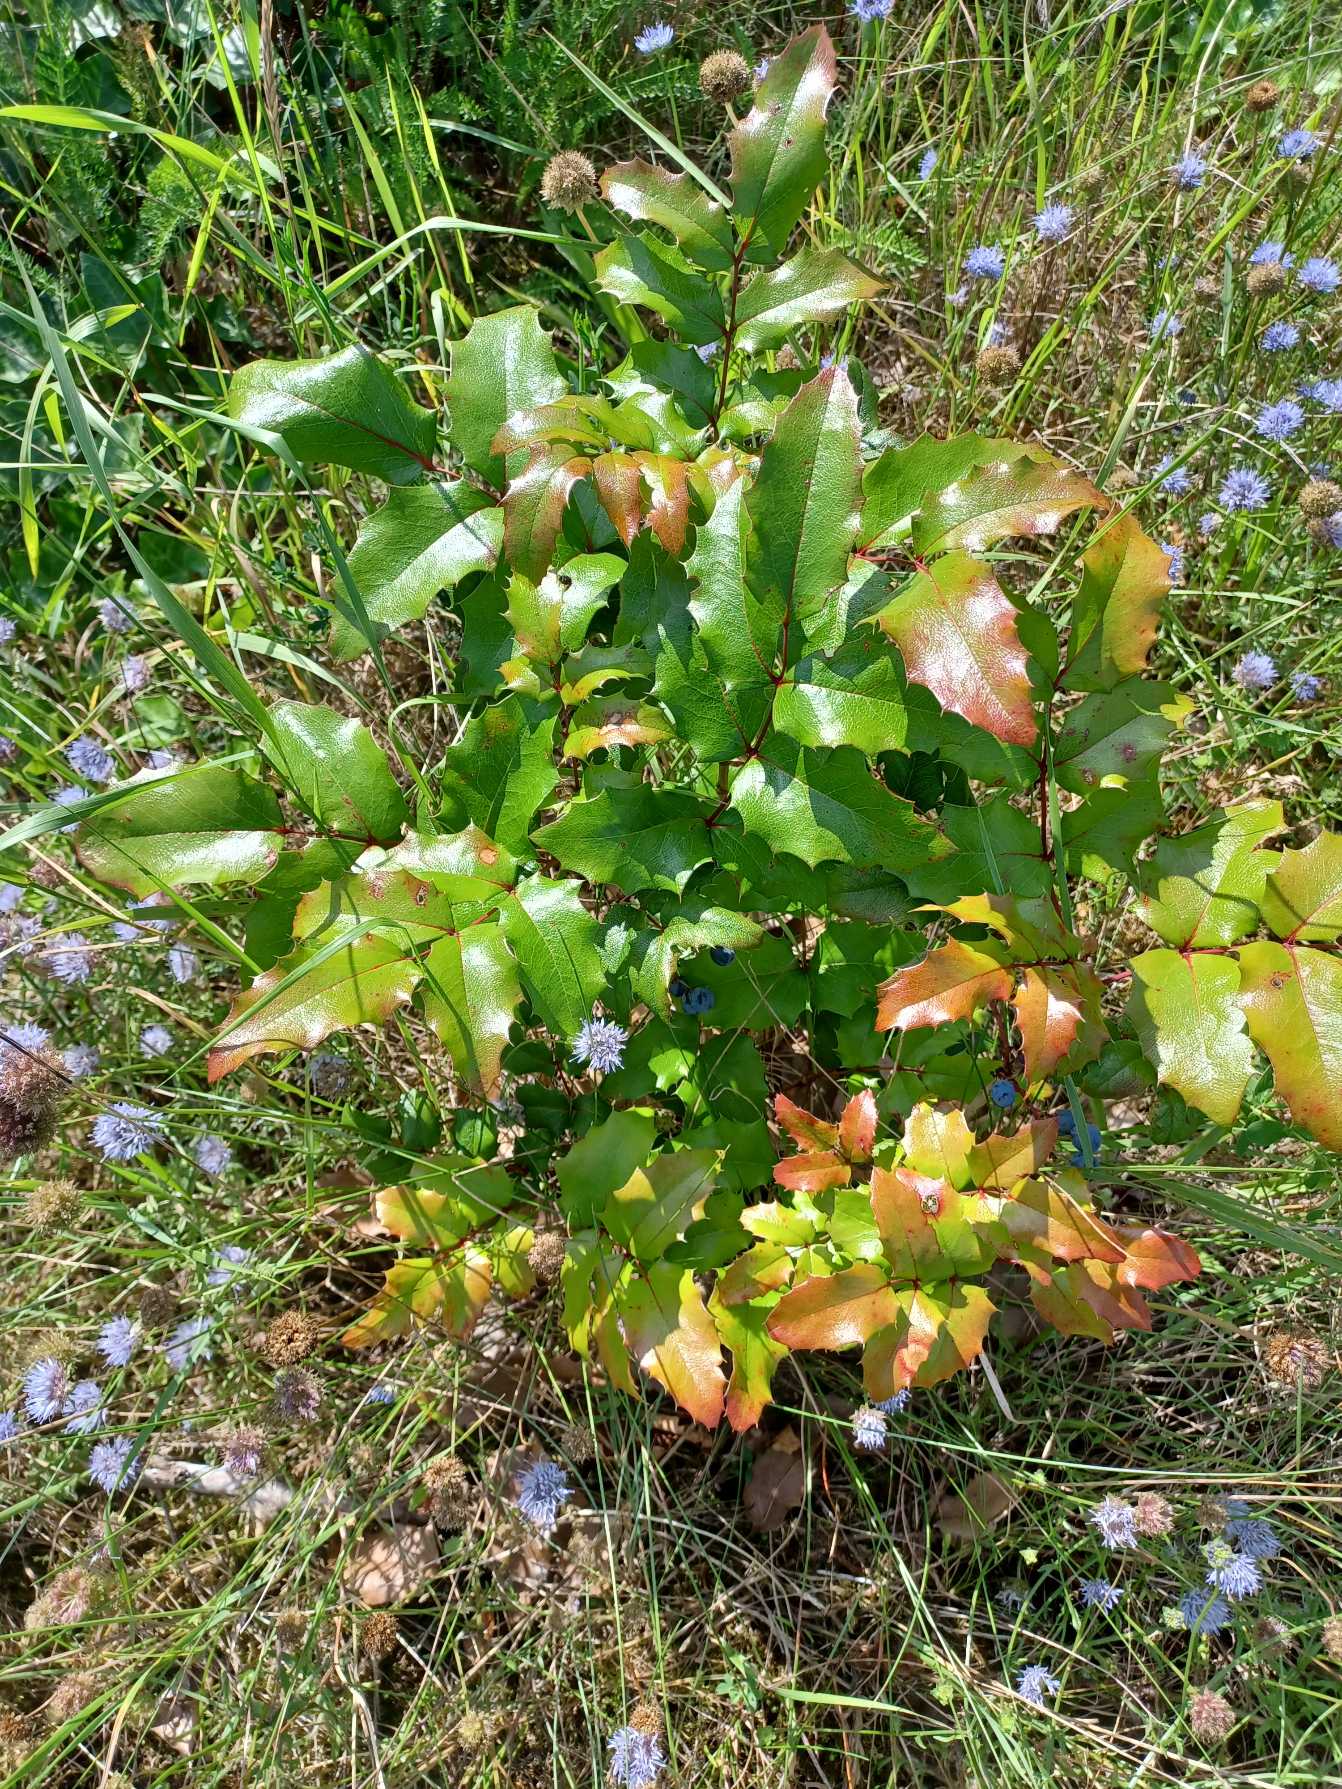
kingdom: Plantae
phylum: Tracheophyta
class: Magnoliopsida
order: Ranunculales
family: Berberidaceae
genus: Mahonia
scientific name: Mahonia aquifolium
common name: Almindelig mahonie
